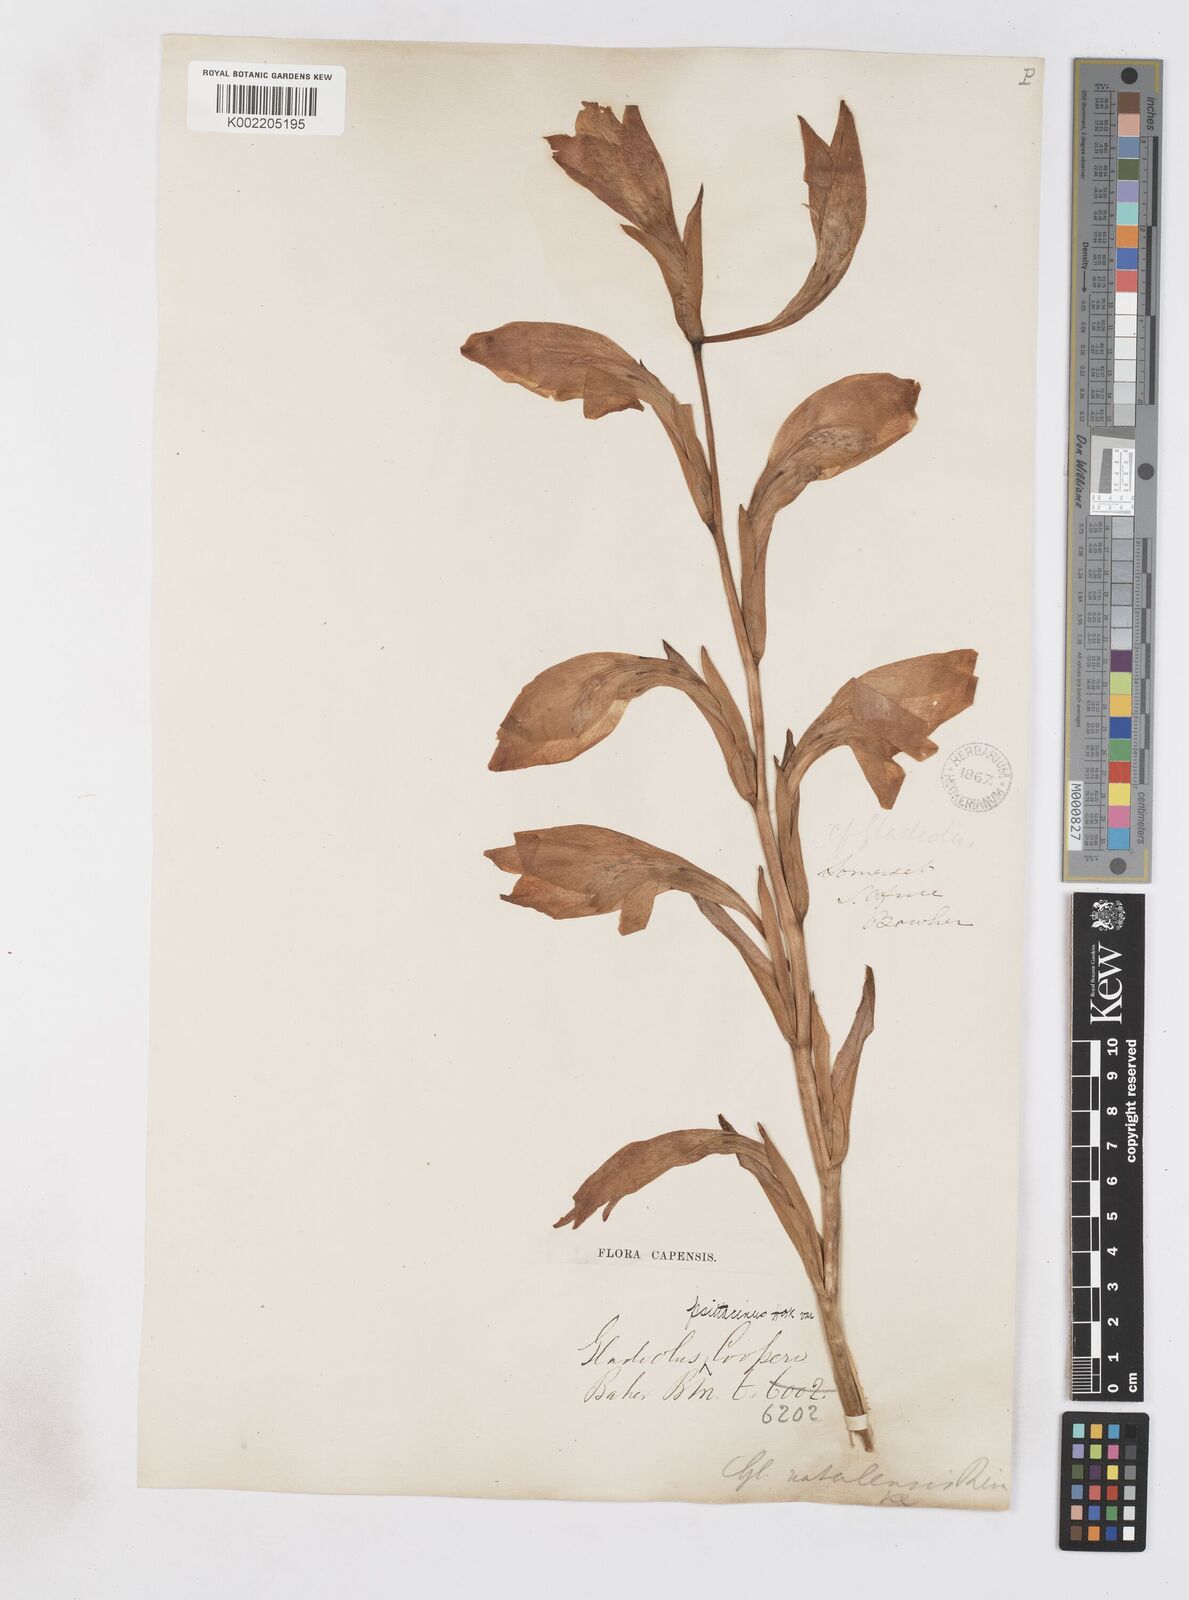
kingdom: Plantae
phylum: Tracheophyta
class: Liliopsida
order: Asparagales
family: Iridaceae
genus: Gladiolus
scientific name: Gladiolus dalenii
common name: Cornflag
